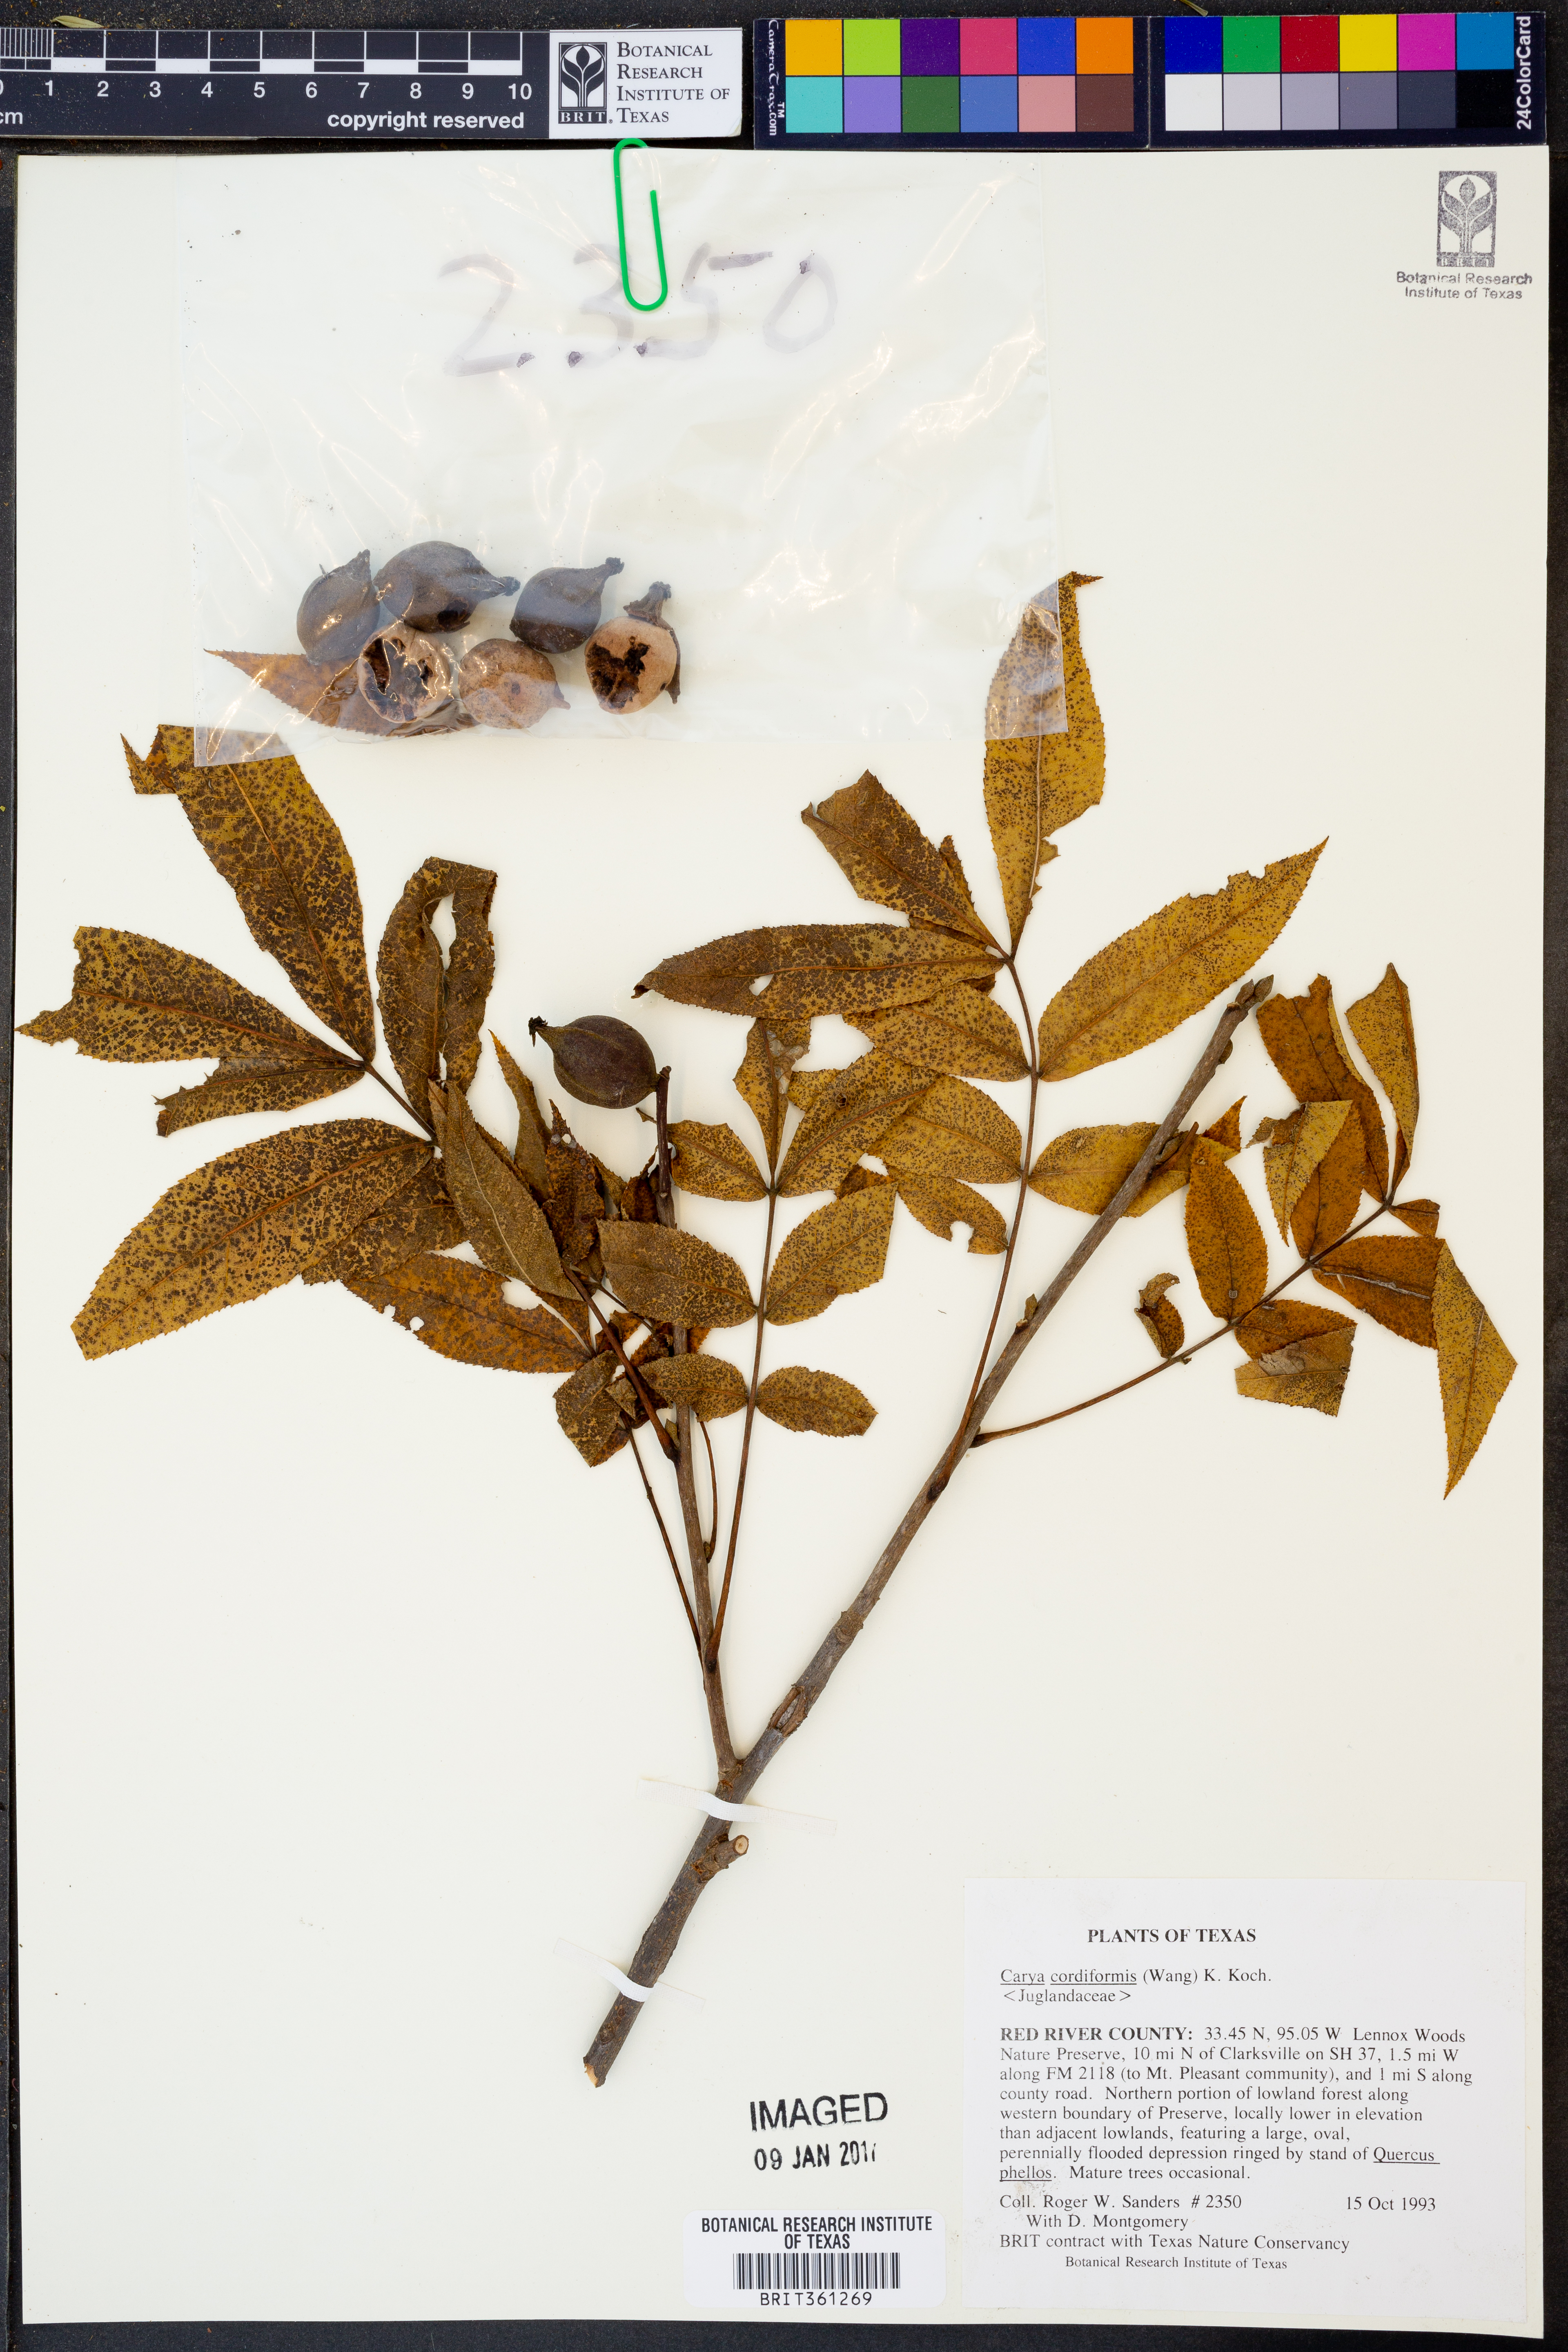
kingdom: Plantae
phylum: Tracheophyta
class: Magnoliopsida
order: Fagales
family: Juglandaceae
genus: Carya
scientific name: Carya cordiformis
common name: Bitternut hickory
